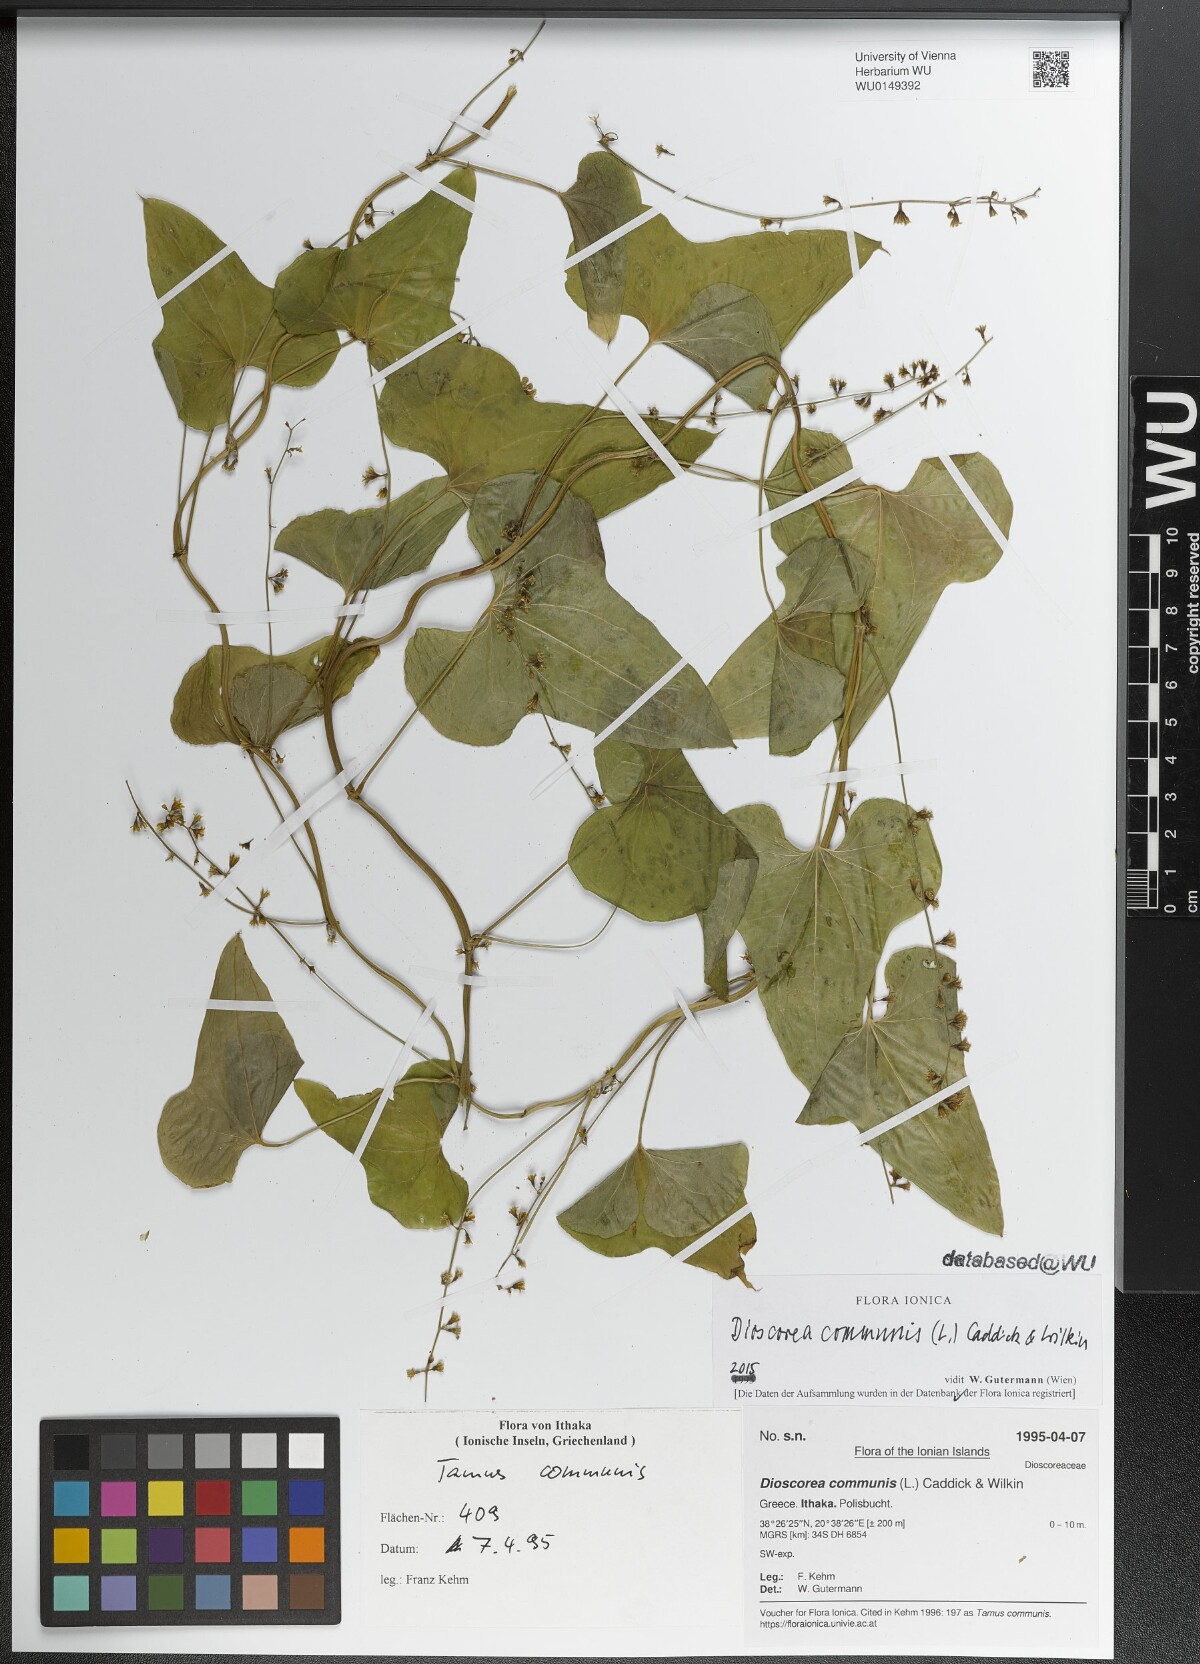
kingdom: Plantae
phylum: Tracheophyta
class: Liliopsida
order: Dioscoreales
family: Dioscoreaceae
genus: Dioscorea
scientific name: Dioscorea communis
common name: Black-bindweed
